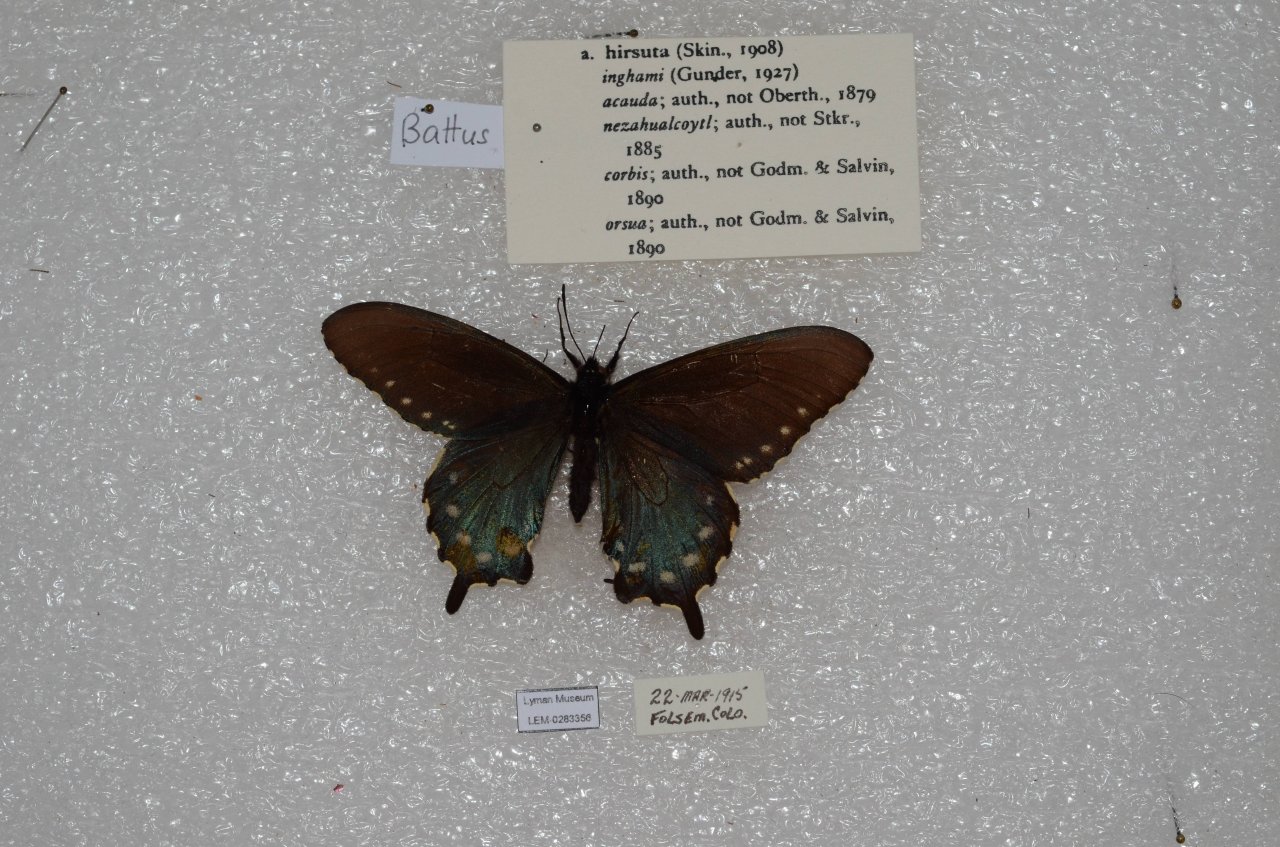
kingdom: Animalia
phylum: Arthropoda
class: Insecta
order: Lepidoptera
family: Papilionidae
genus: Battus
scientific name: Battus philenor
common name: Pipevine Swallowtail
